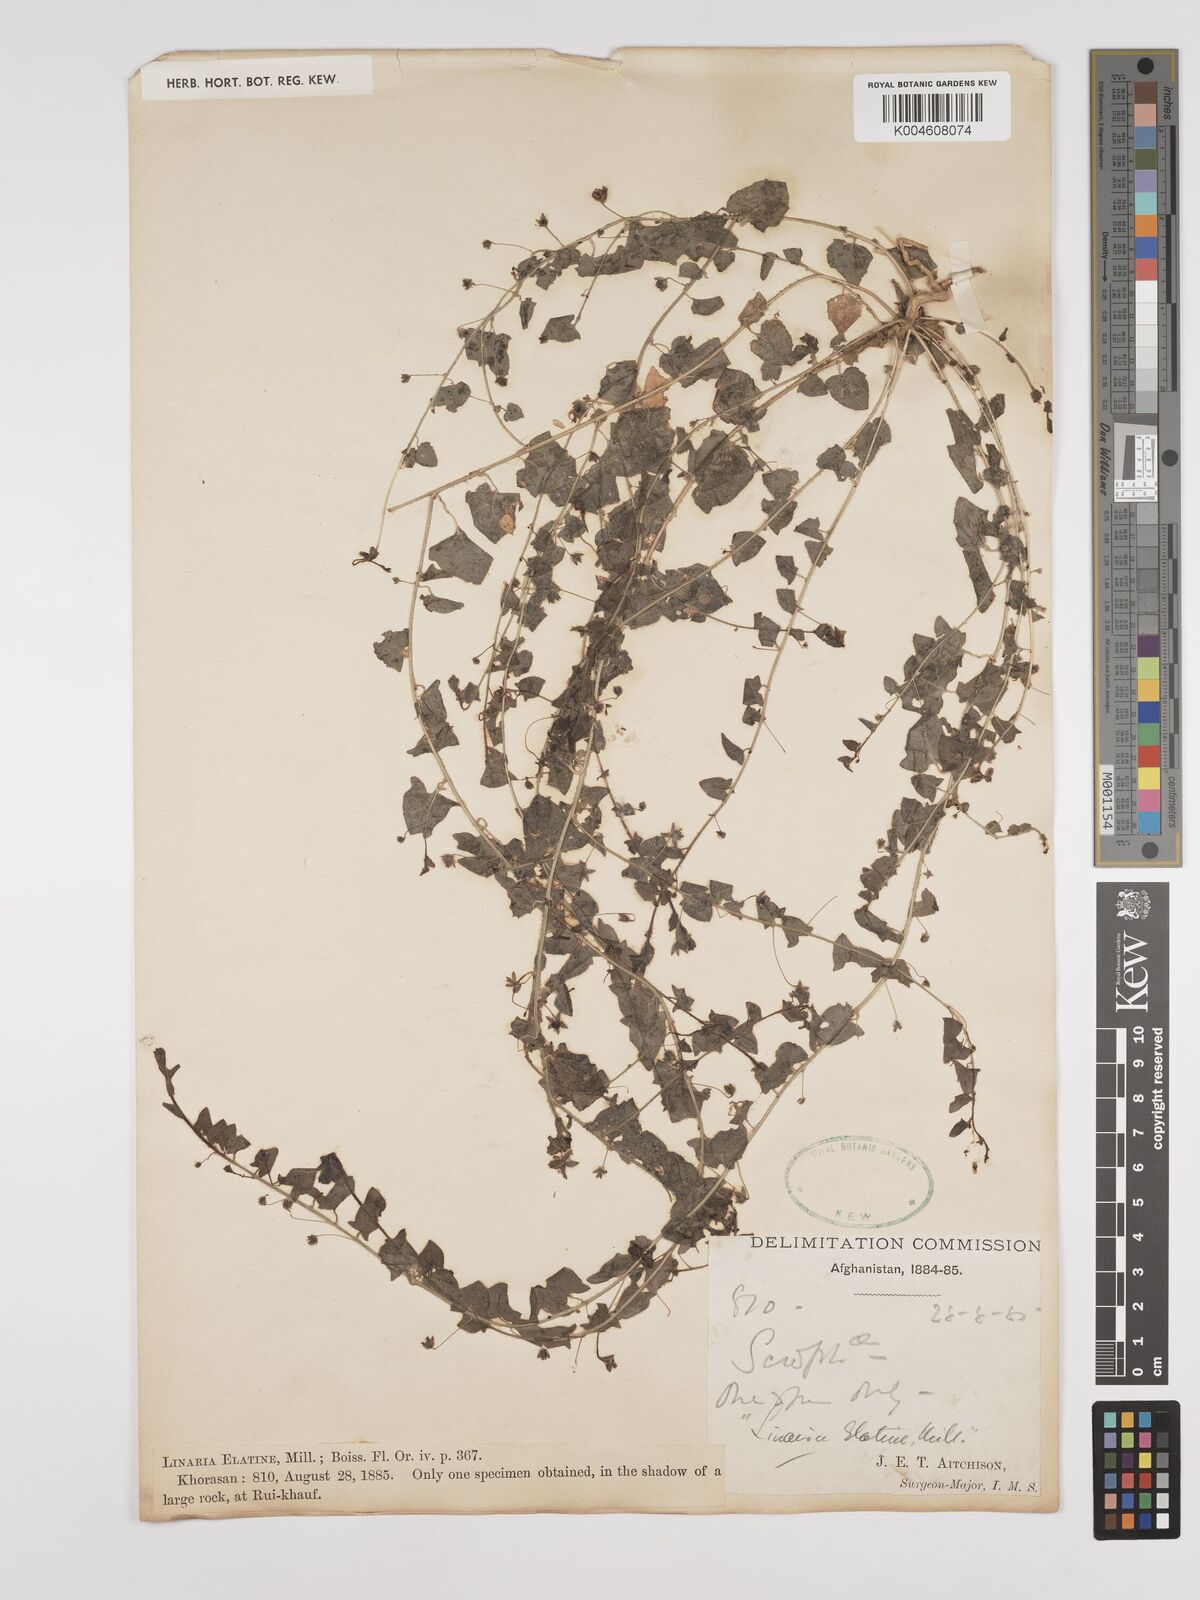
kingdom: Plantae
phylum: Tracheophyta
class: Magnoliopsida
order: Lamiales
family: Plantaginaceae
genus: Kickxia
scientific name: Kickxia elatine
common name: Sharp-leaved fluellen
